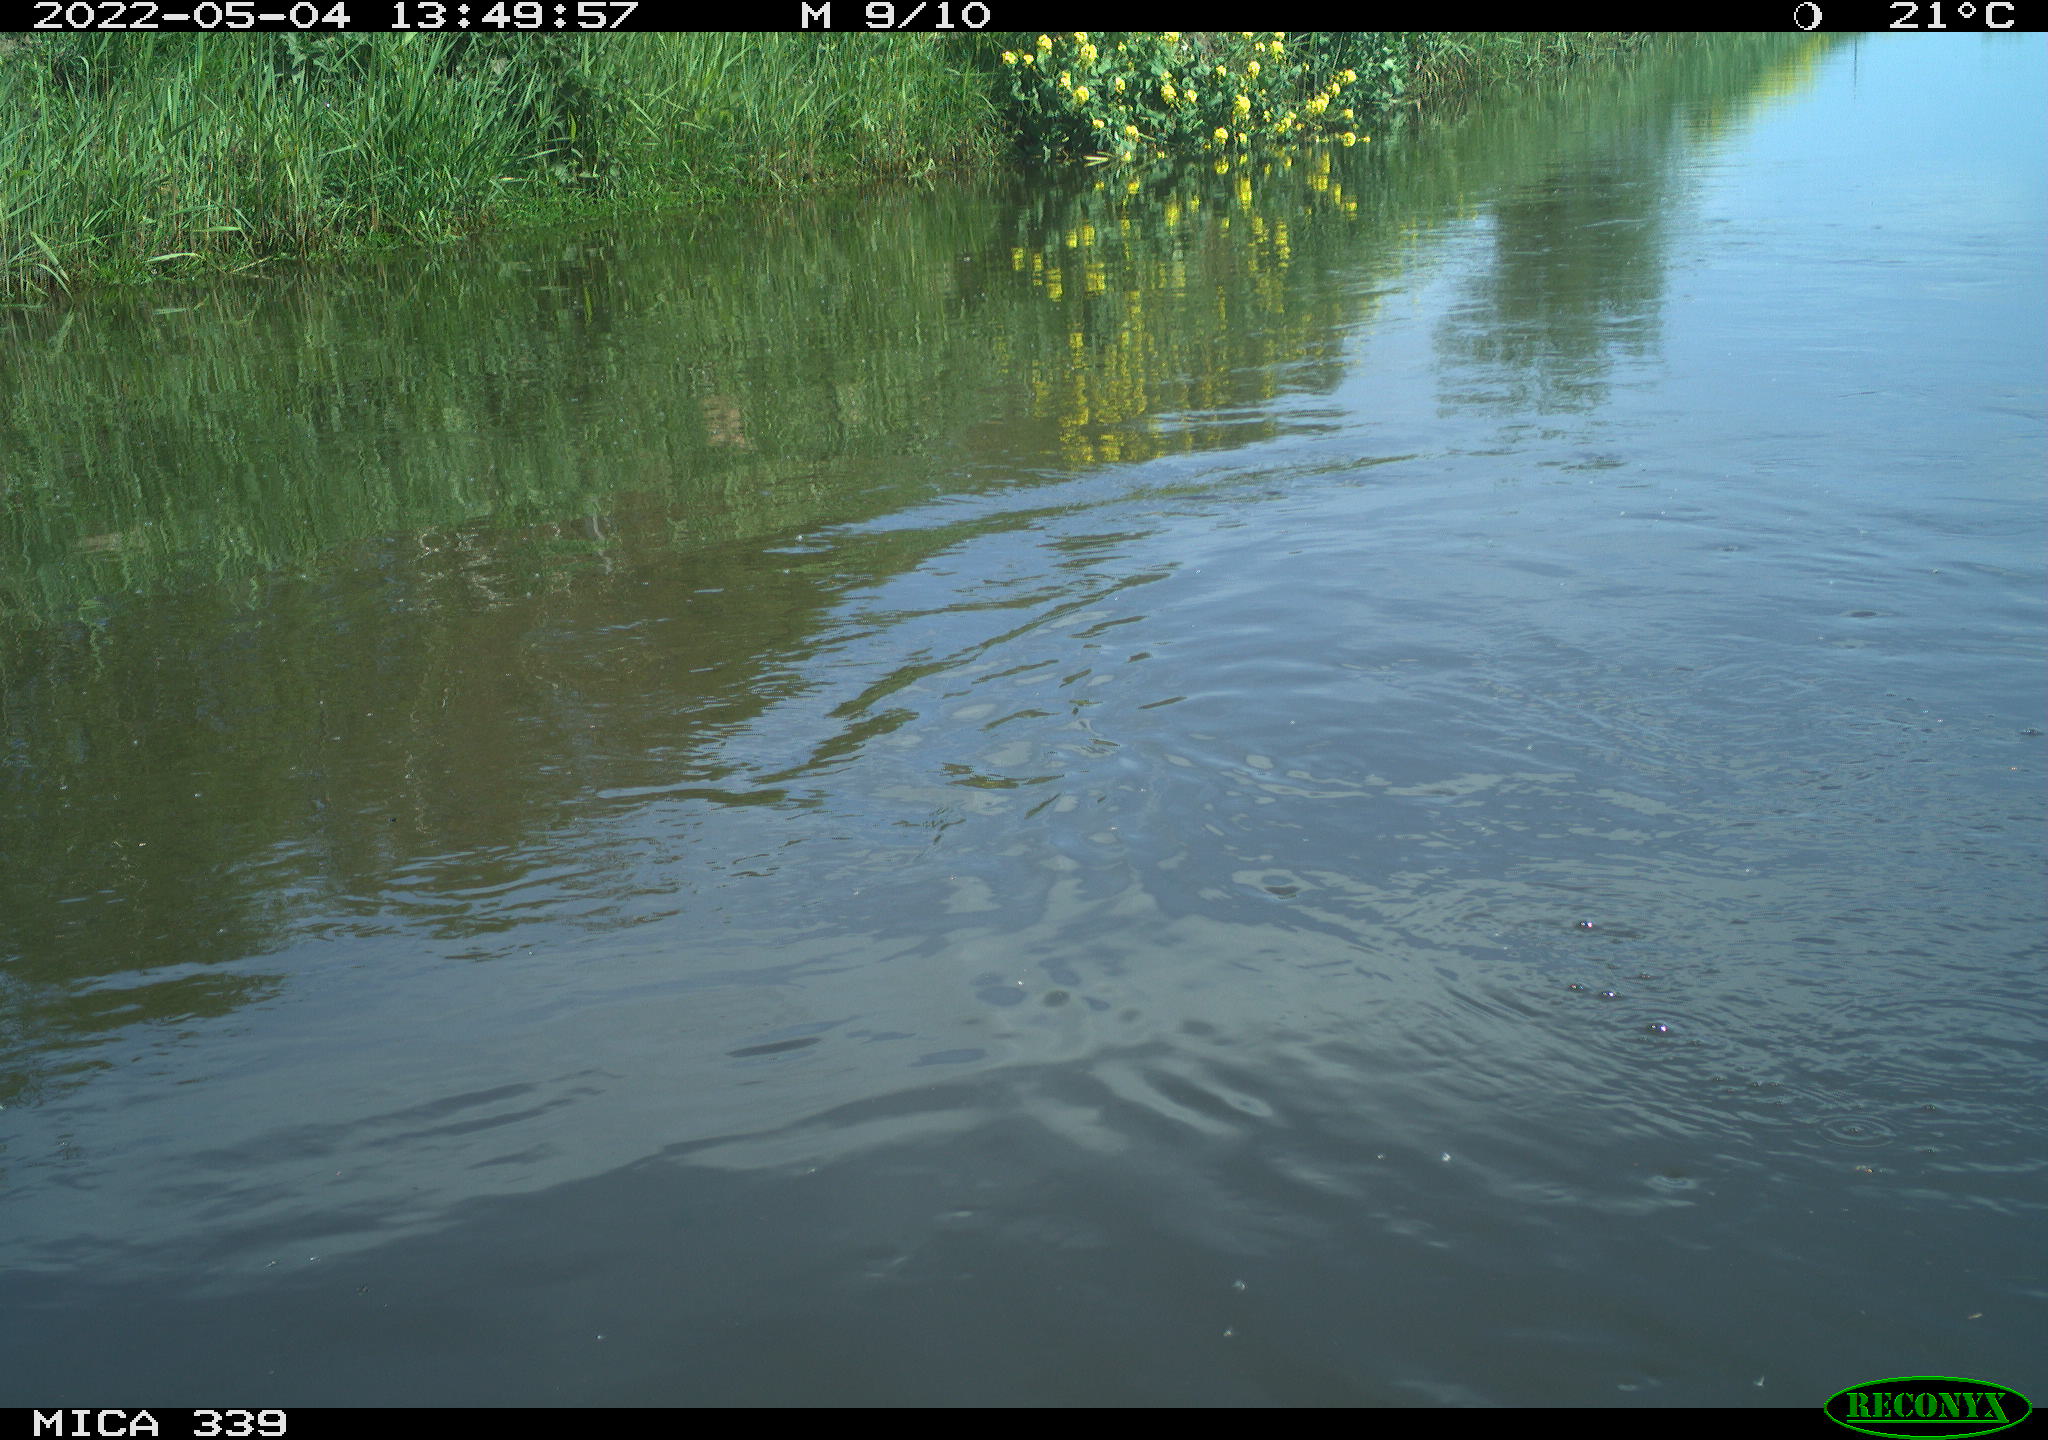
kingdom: Animalia
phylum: Chordata
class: Aves
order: Gruiformes
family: Rallidae
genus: Fulica
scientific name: Fulica atra
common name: Eurasian coot
